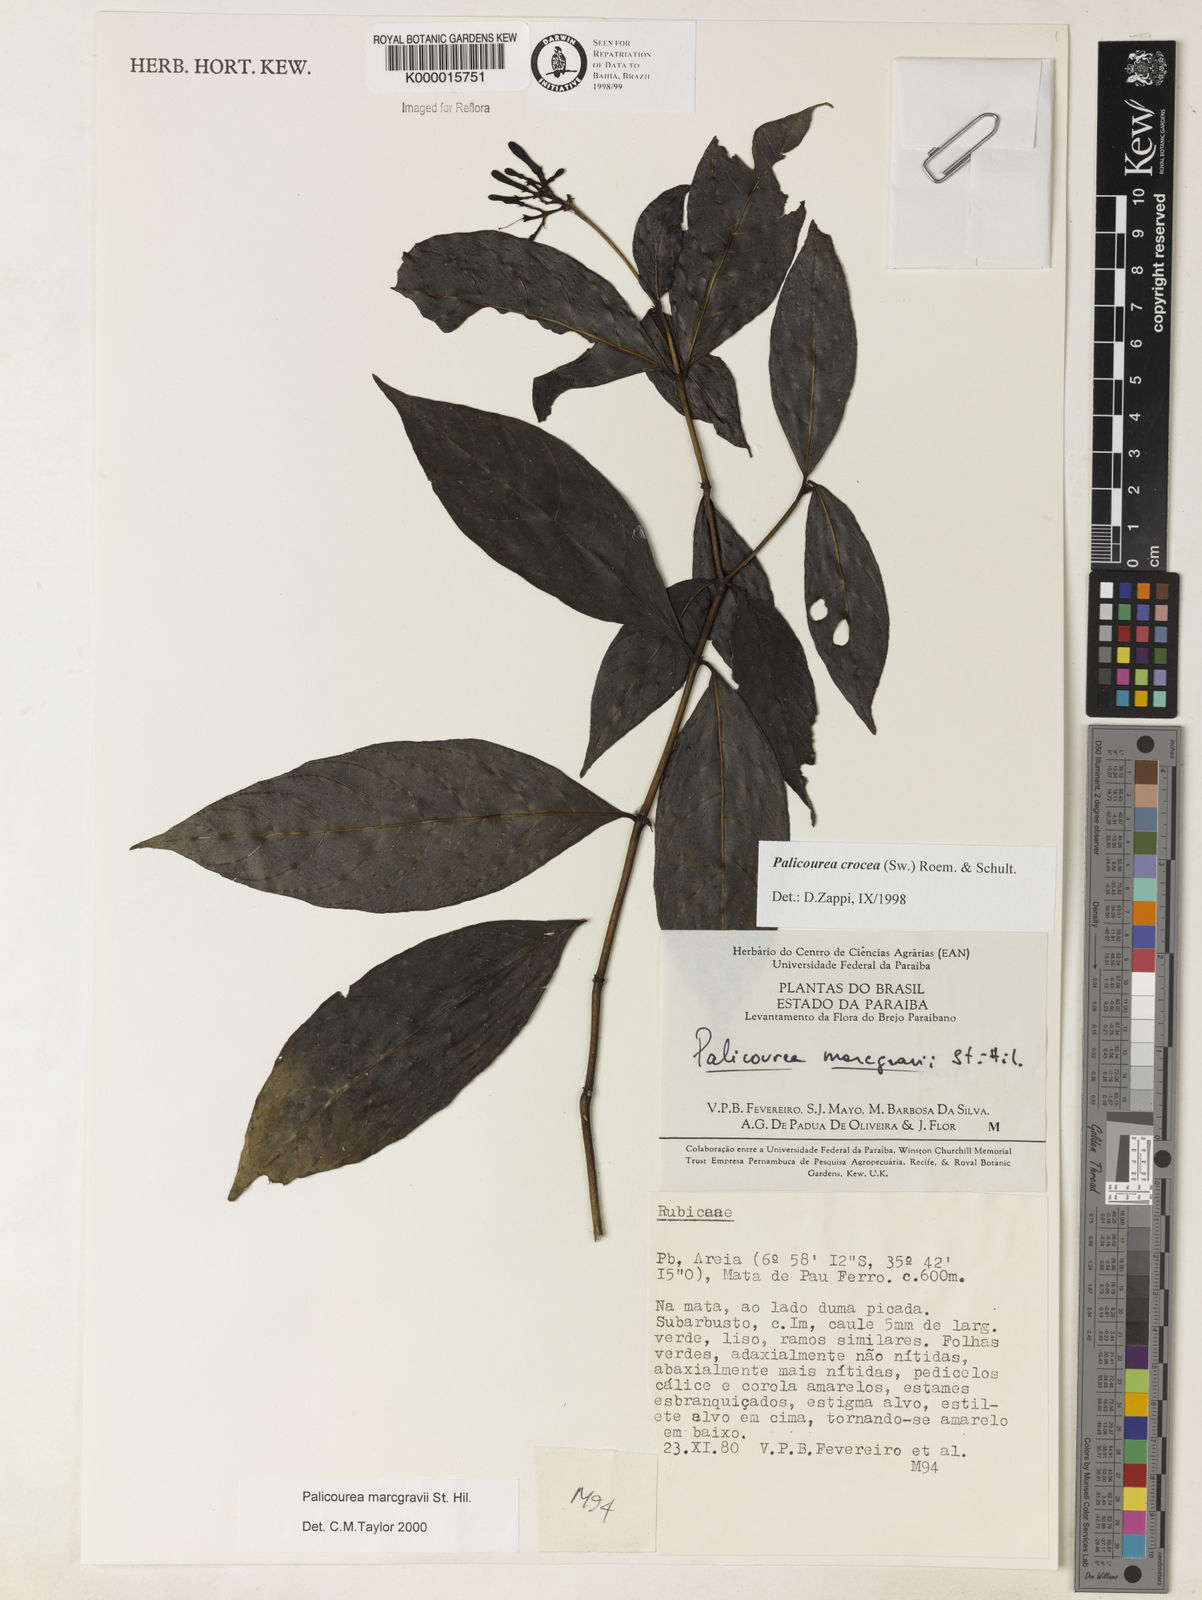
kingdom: Plantae
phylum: Tracheophyta
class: Magnoliopsida
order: Gentianales
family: Rubiaceae
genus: Palicourea
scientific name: Palicourea marcgravii
